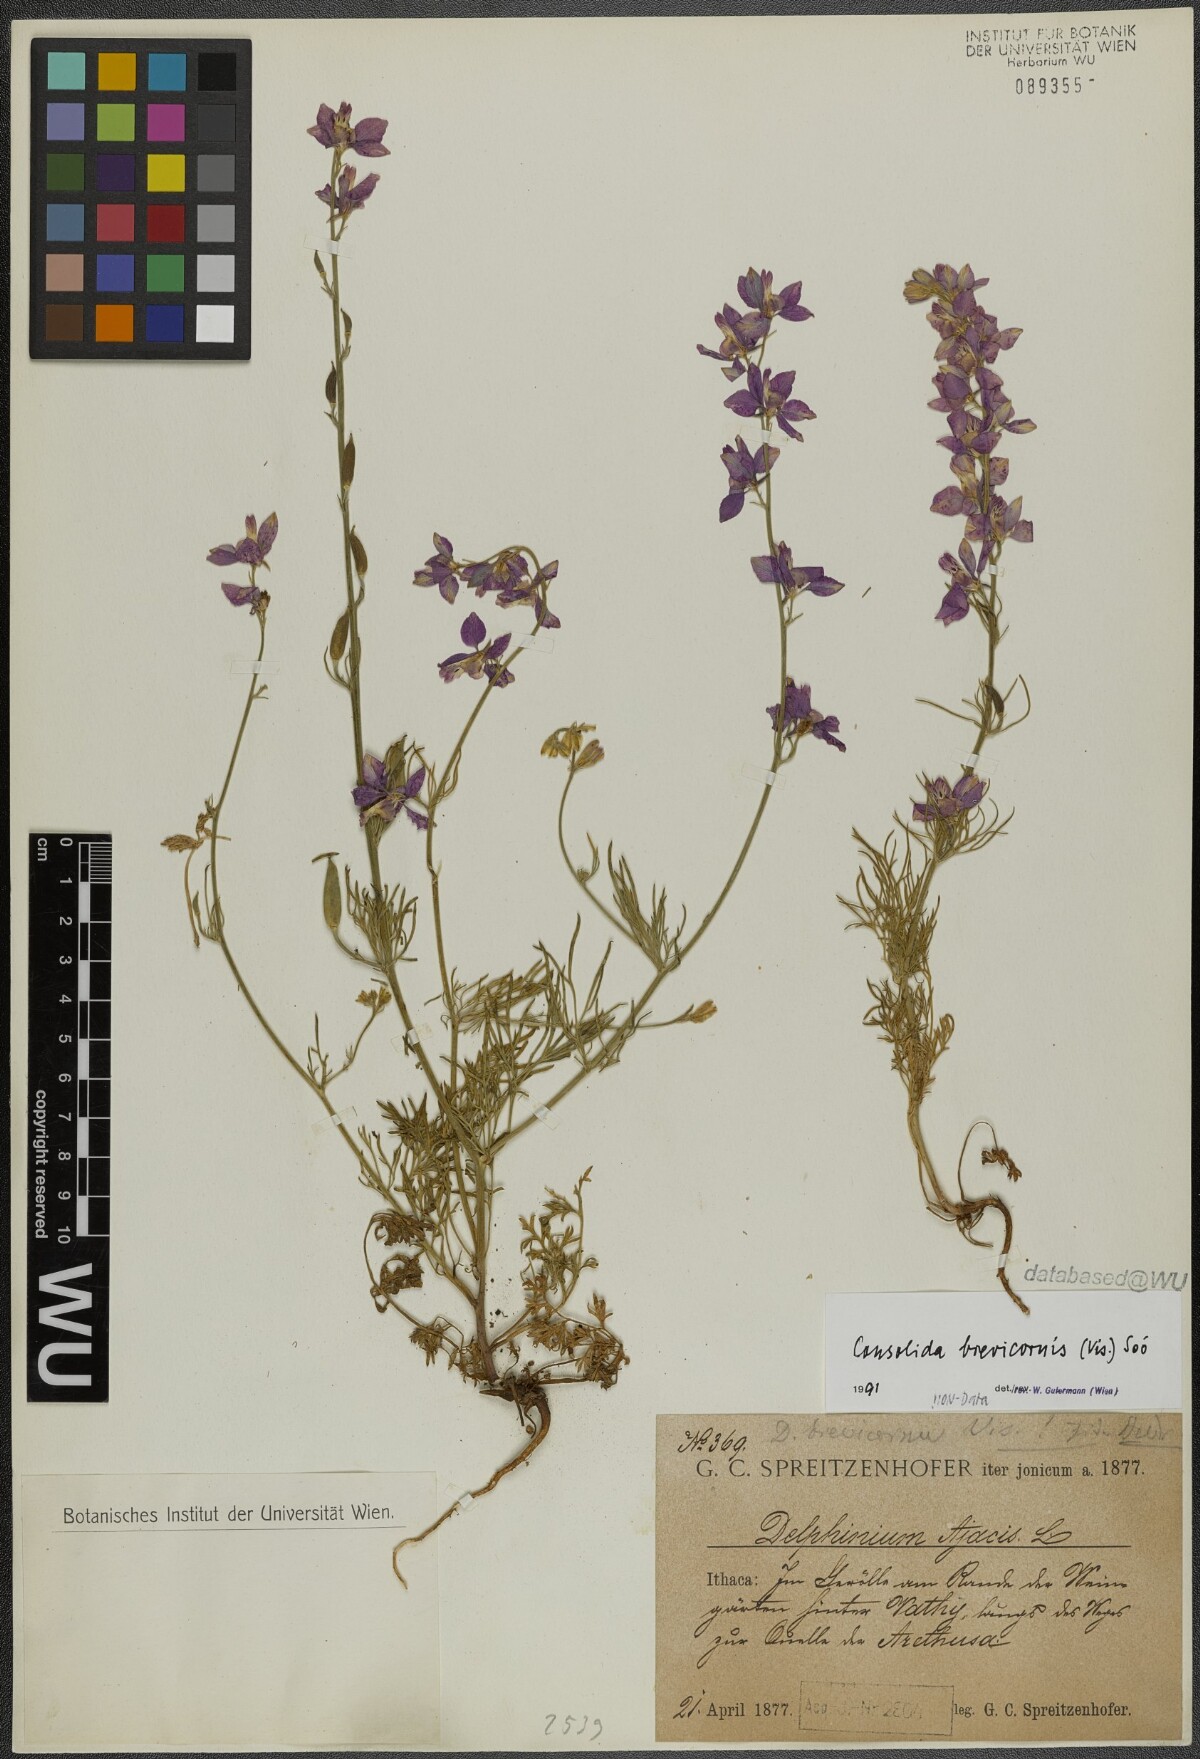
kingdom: Plantae
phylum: Tracheophyta
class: Magnoliopsida
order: Ranunculales
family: Ranunculaceae
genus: Delphinium
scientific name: Delphinium brevicorne
